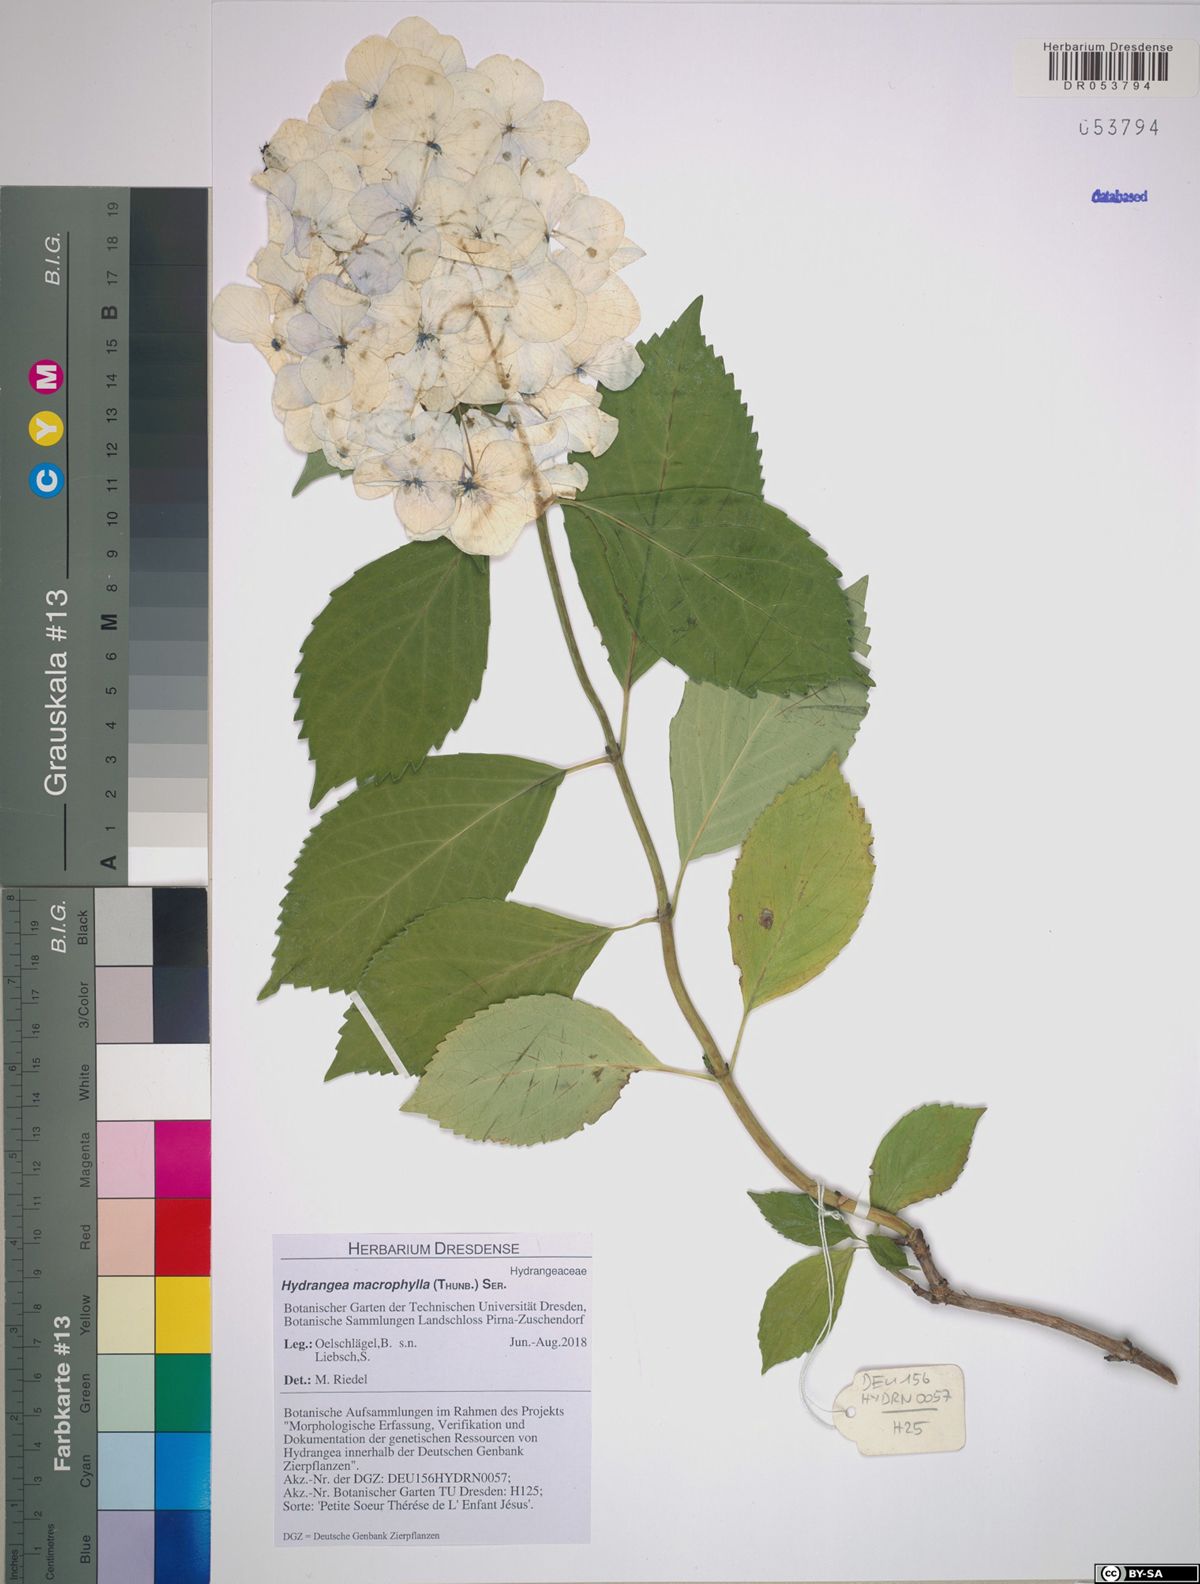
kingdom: Plantae
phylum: Tracheophyta
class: Magnoliopsida
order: Cornales
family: Hydrangeaceae
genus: Hydrangea
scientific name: Hydrangea macrophylla
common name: Hydrangea
